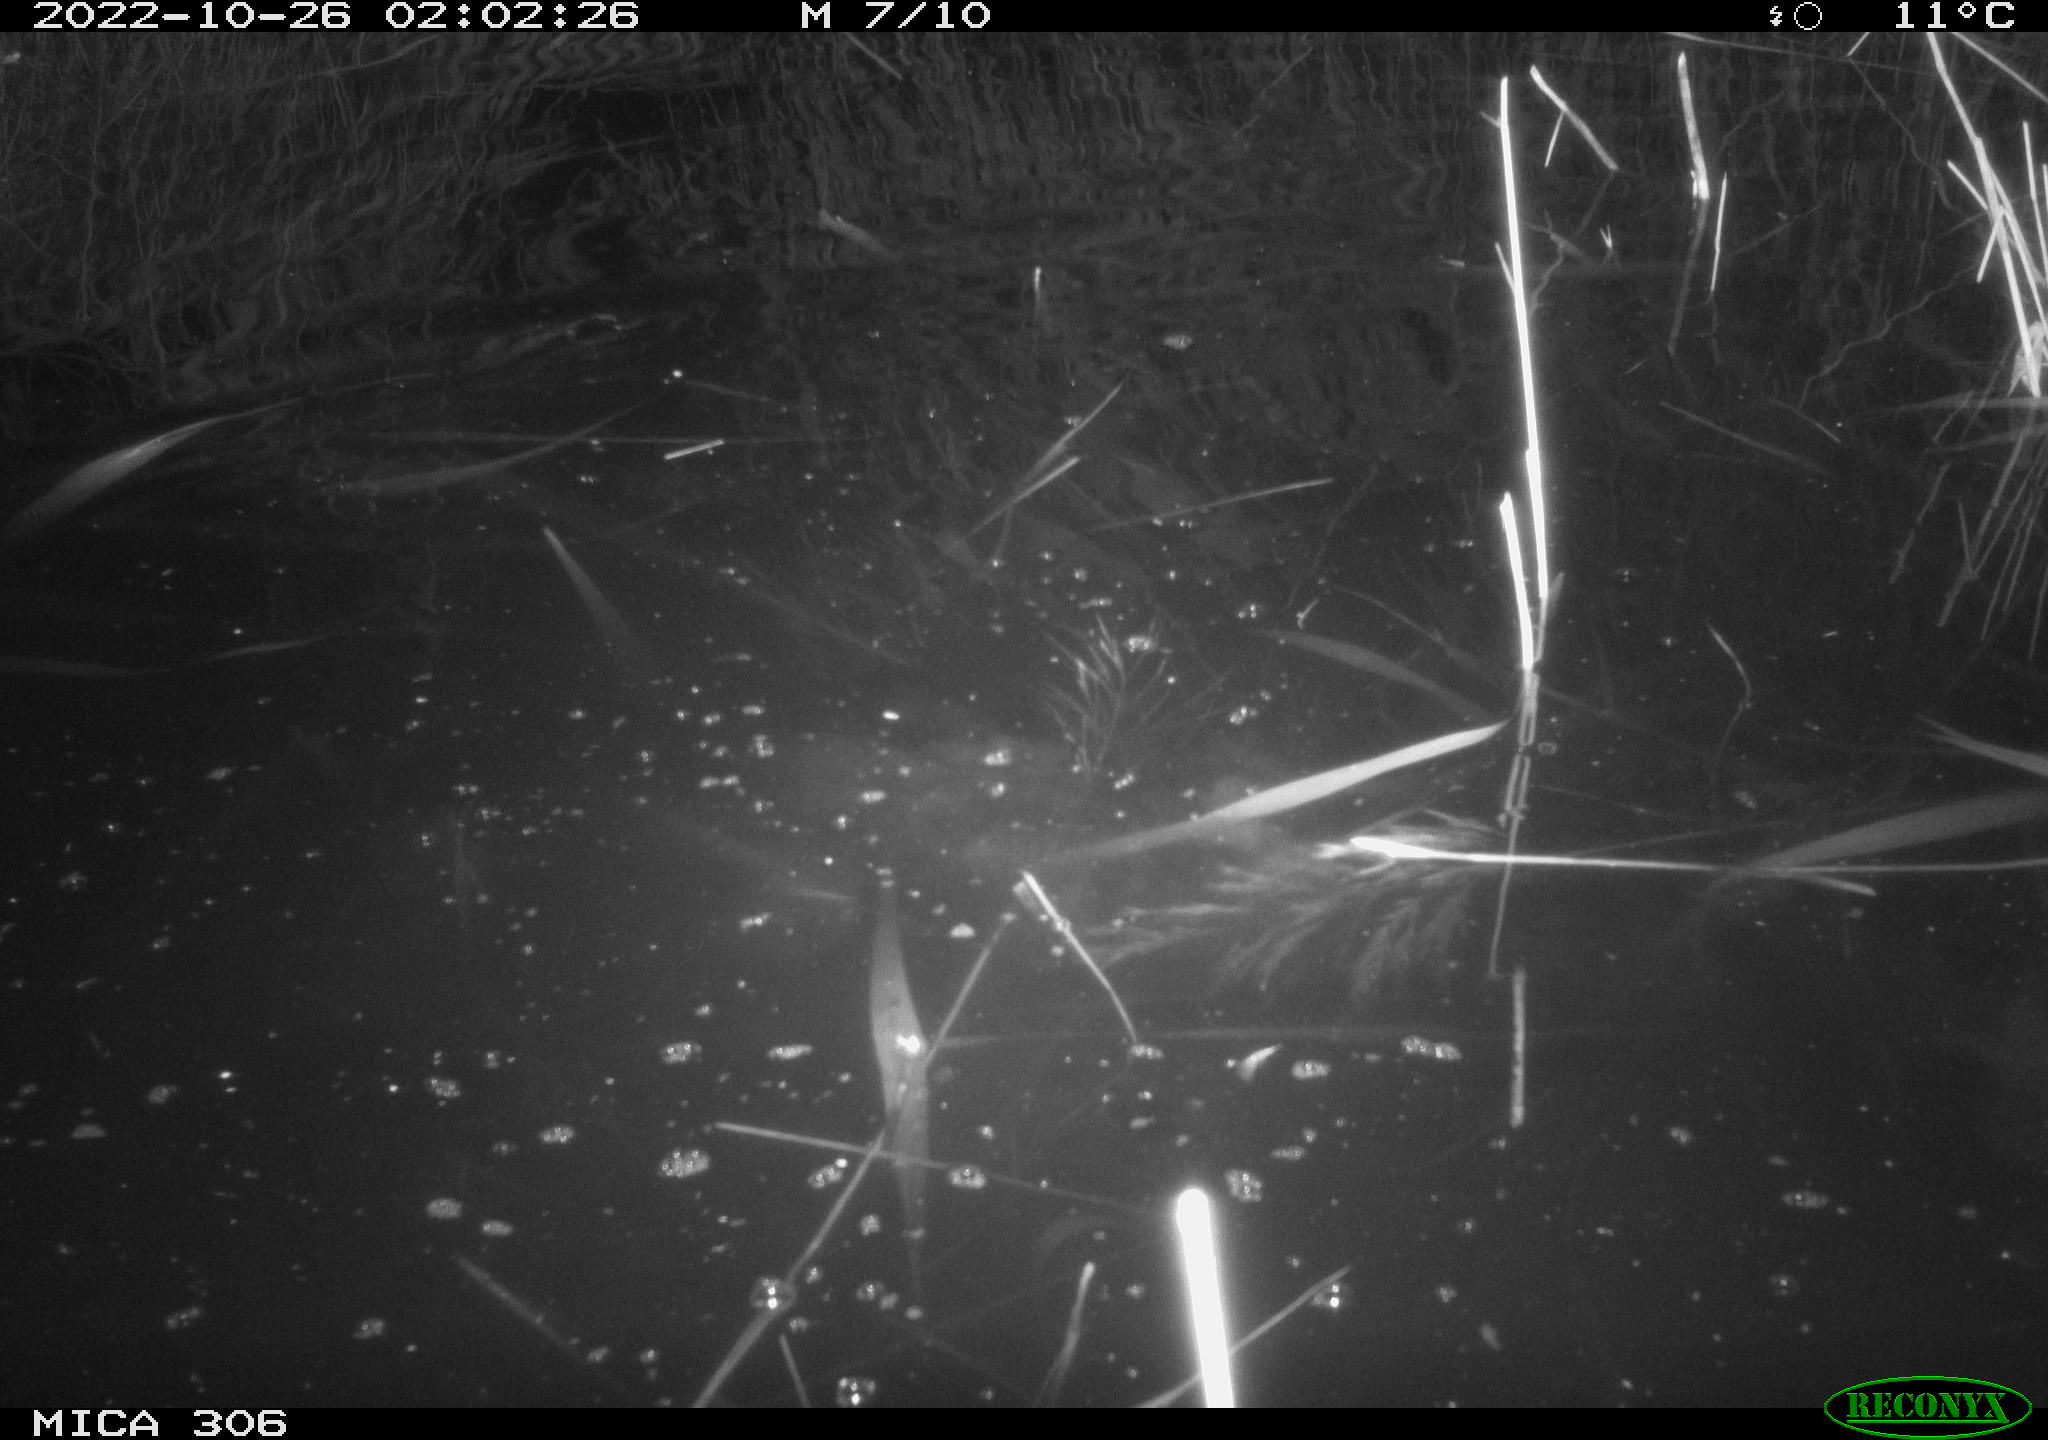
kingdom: Animalia
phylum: Chordata
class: Mammalia
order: Rodentia
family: Muridae
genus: Rattus
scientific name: Rattus norvegicus
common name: Brown rat
